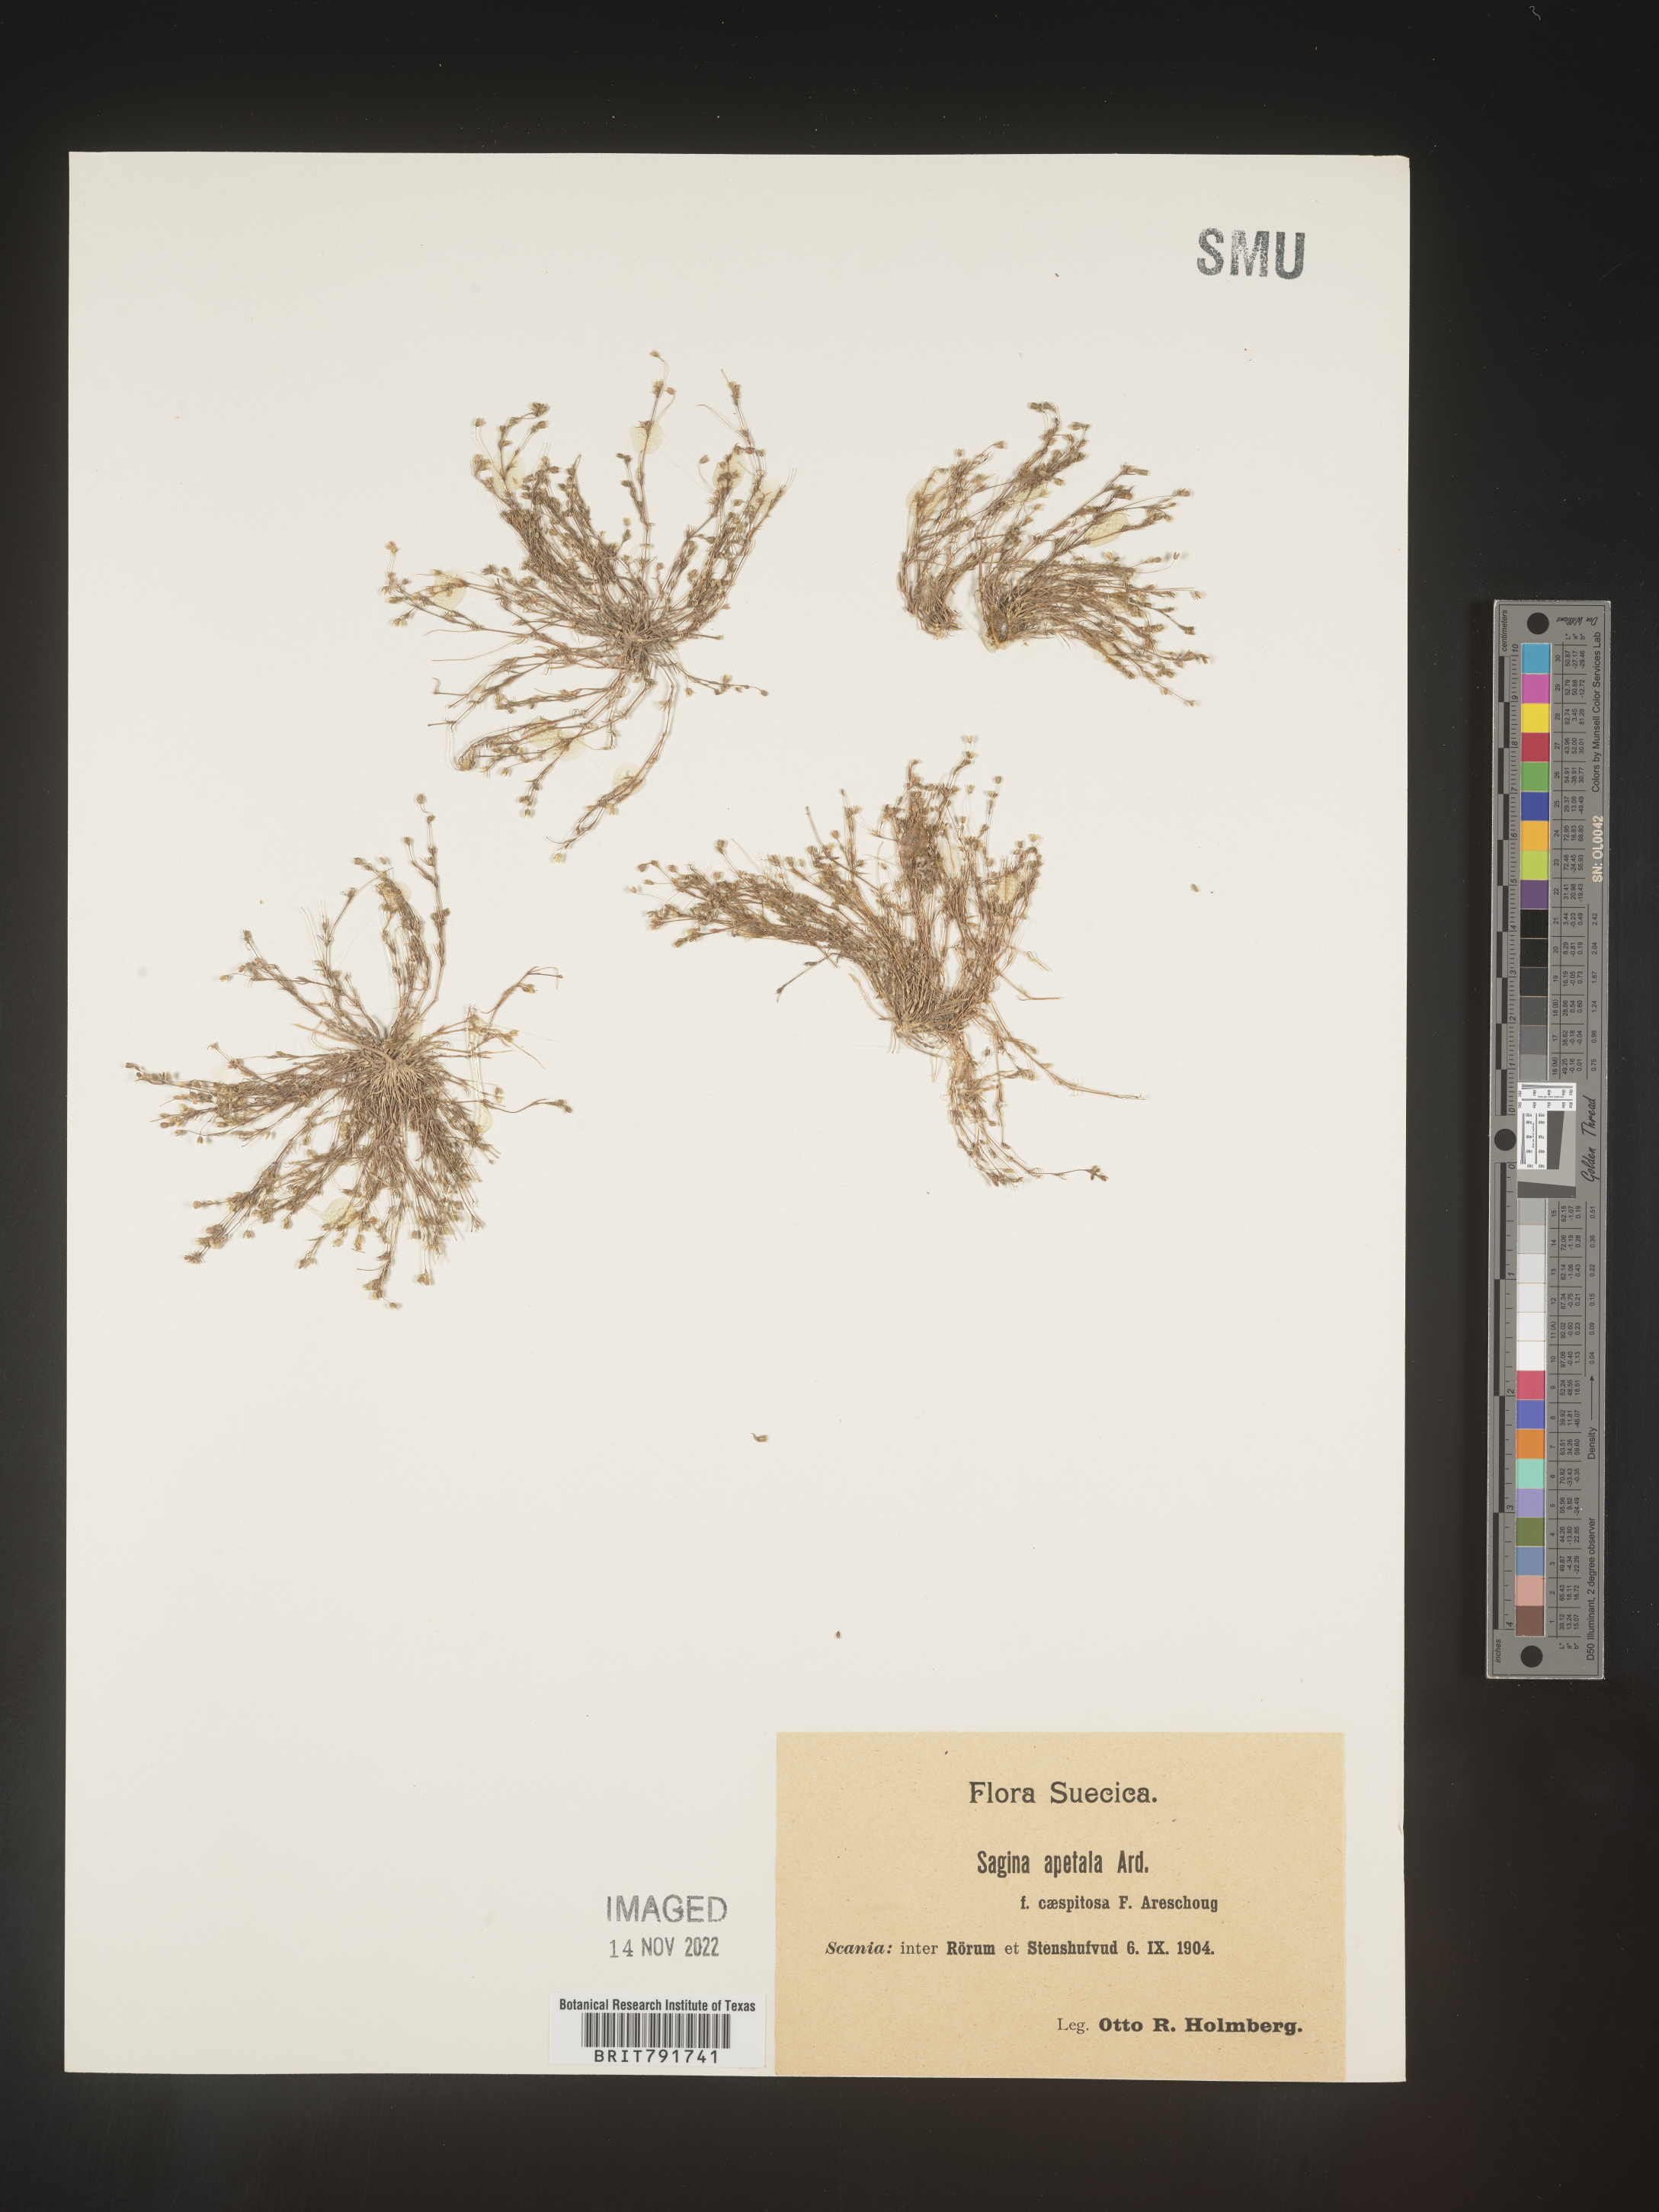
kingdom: Plantae
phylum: Tracheophyta
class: Magnoliopsida
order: Caryophyllales
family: Caryophyllaceae
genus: Sagina
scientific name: Sagina
